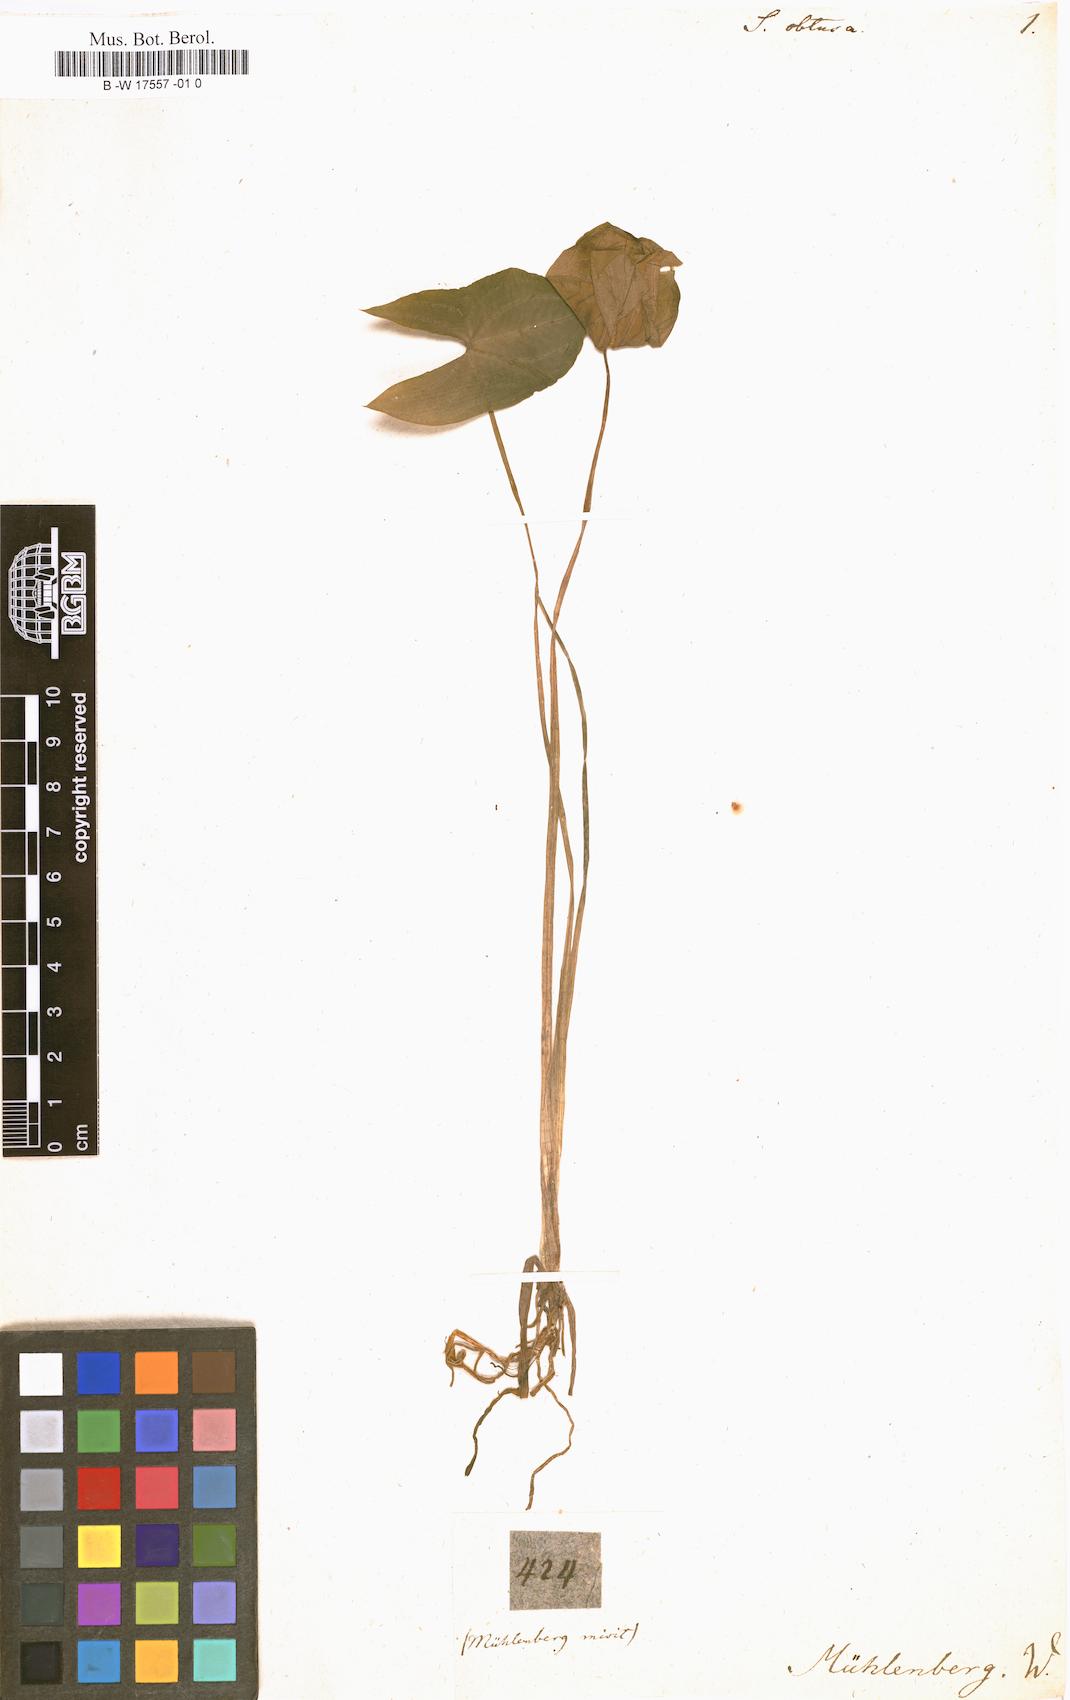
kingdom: Plantae
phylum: Tracheophyta
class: Liliopsida
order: Alismatales
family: Alismataceae
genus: Sagittaria
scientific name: Sagittaria latifolia
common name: Duck-potato
